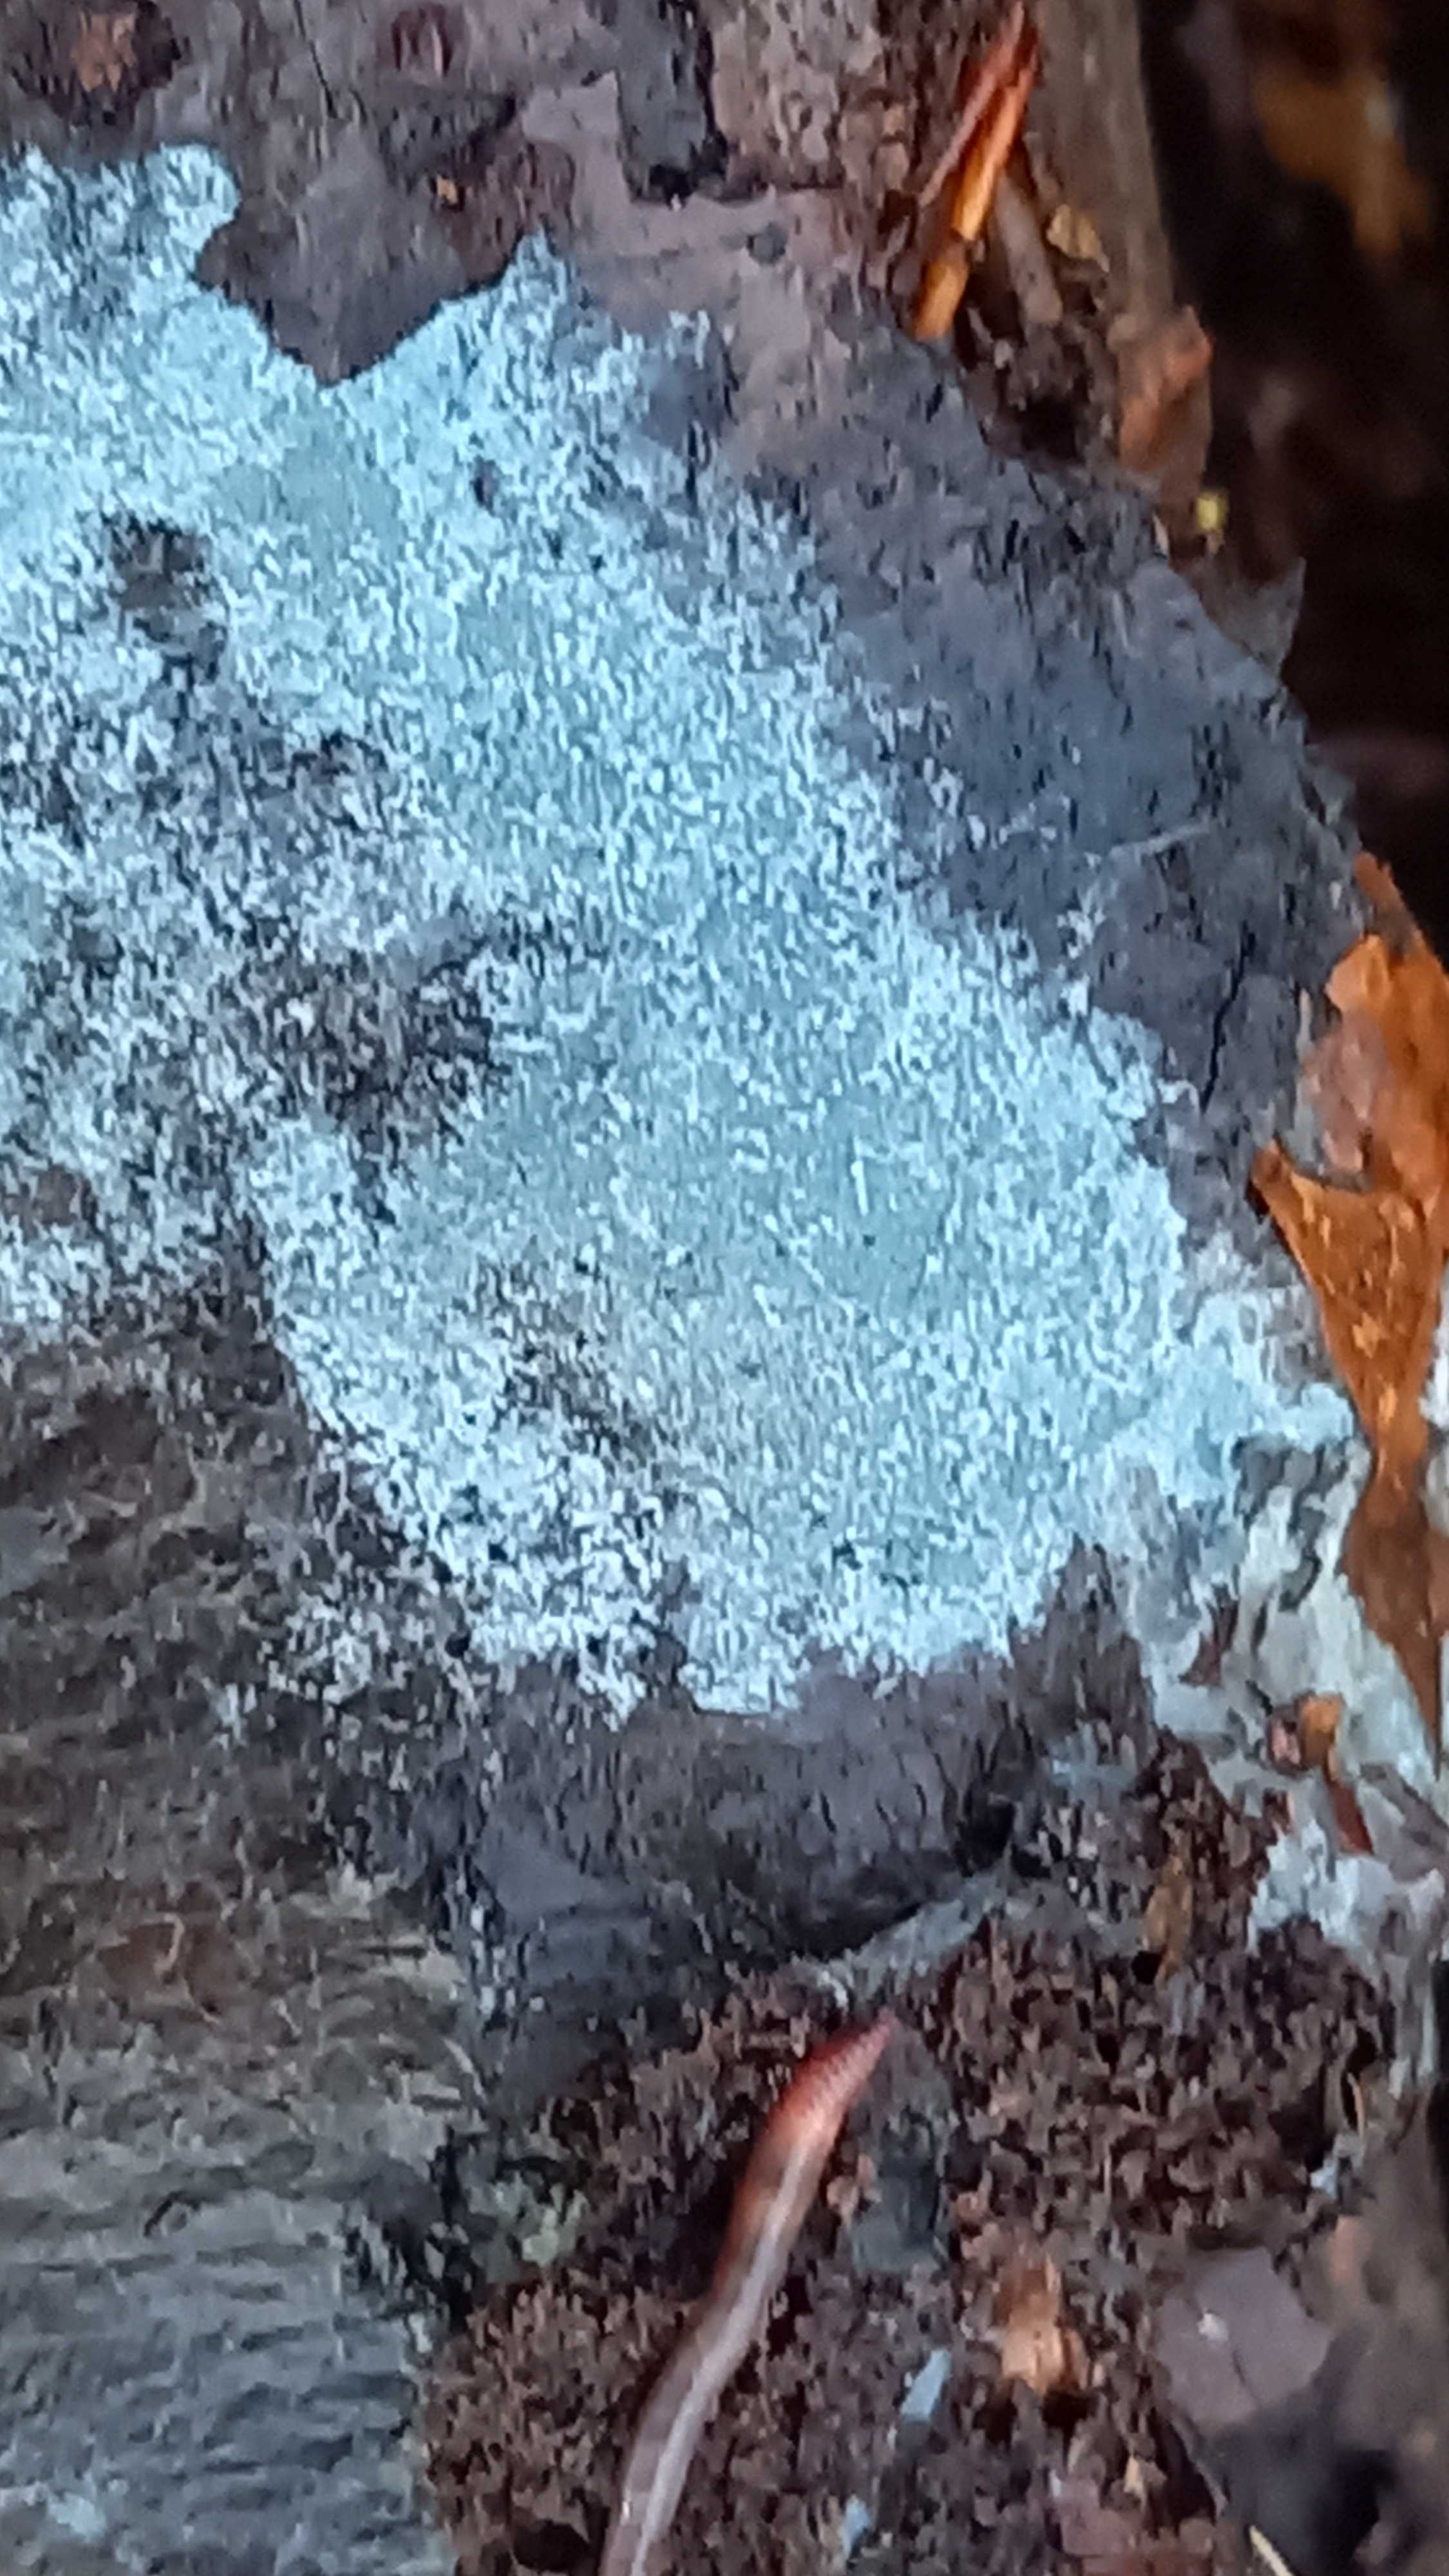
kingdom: Fungi
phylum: Basidiomycota
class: Agaricomycetes
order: Atheliales
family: Atheliaceae
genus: Byssocorticium
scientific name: Byssocorticium atrovirens
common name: blå førnehinde
